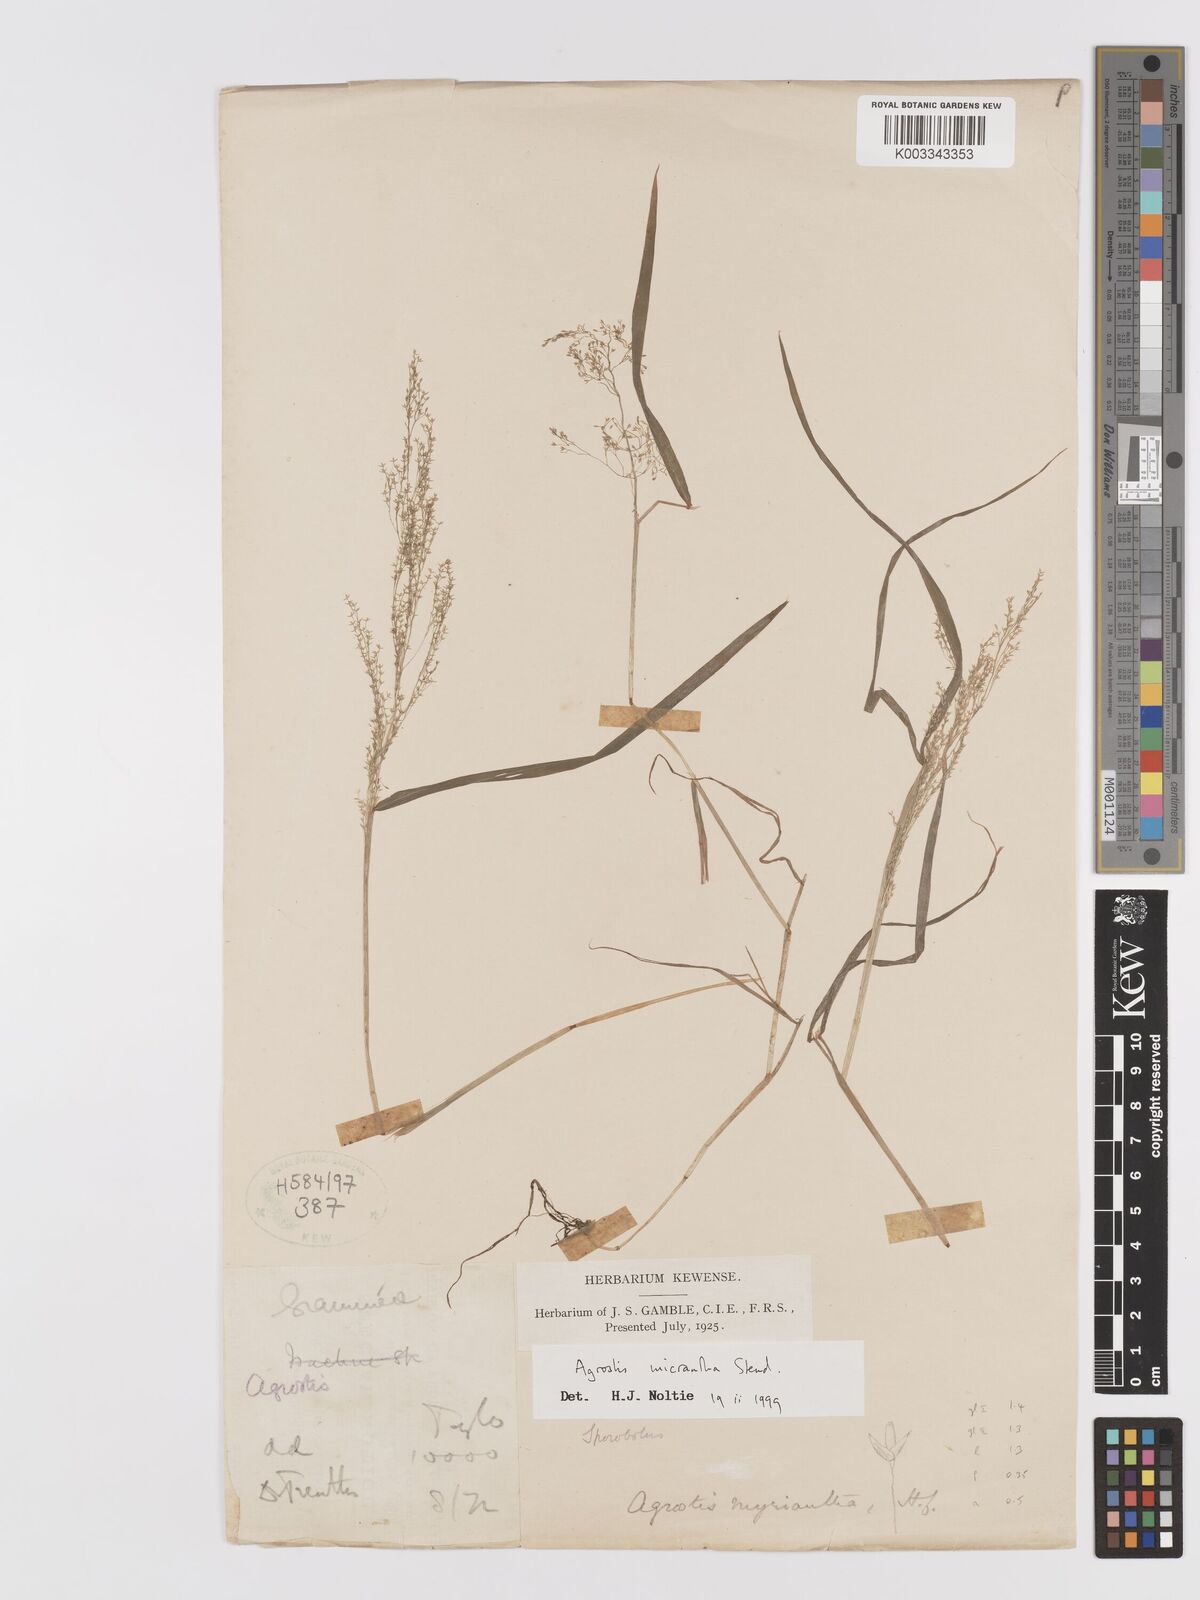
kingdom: Plantae
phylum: Tracheophyta
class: Liliopsida
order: Poales
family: Poaceae
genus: Agrostis
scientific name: Agrostis micrantha
